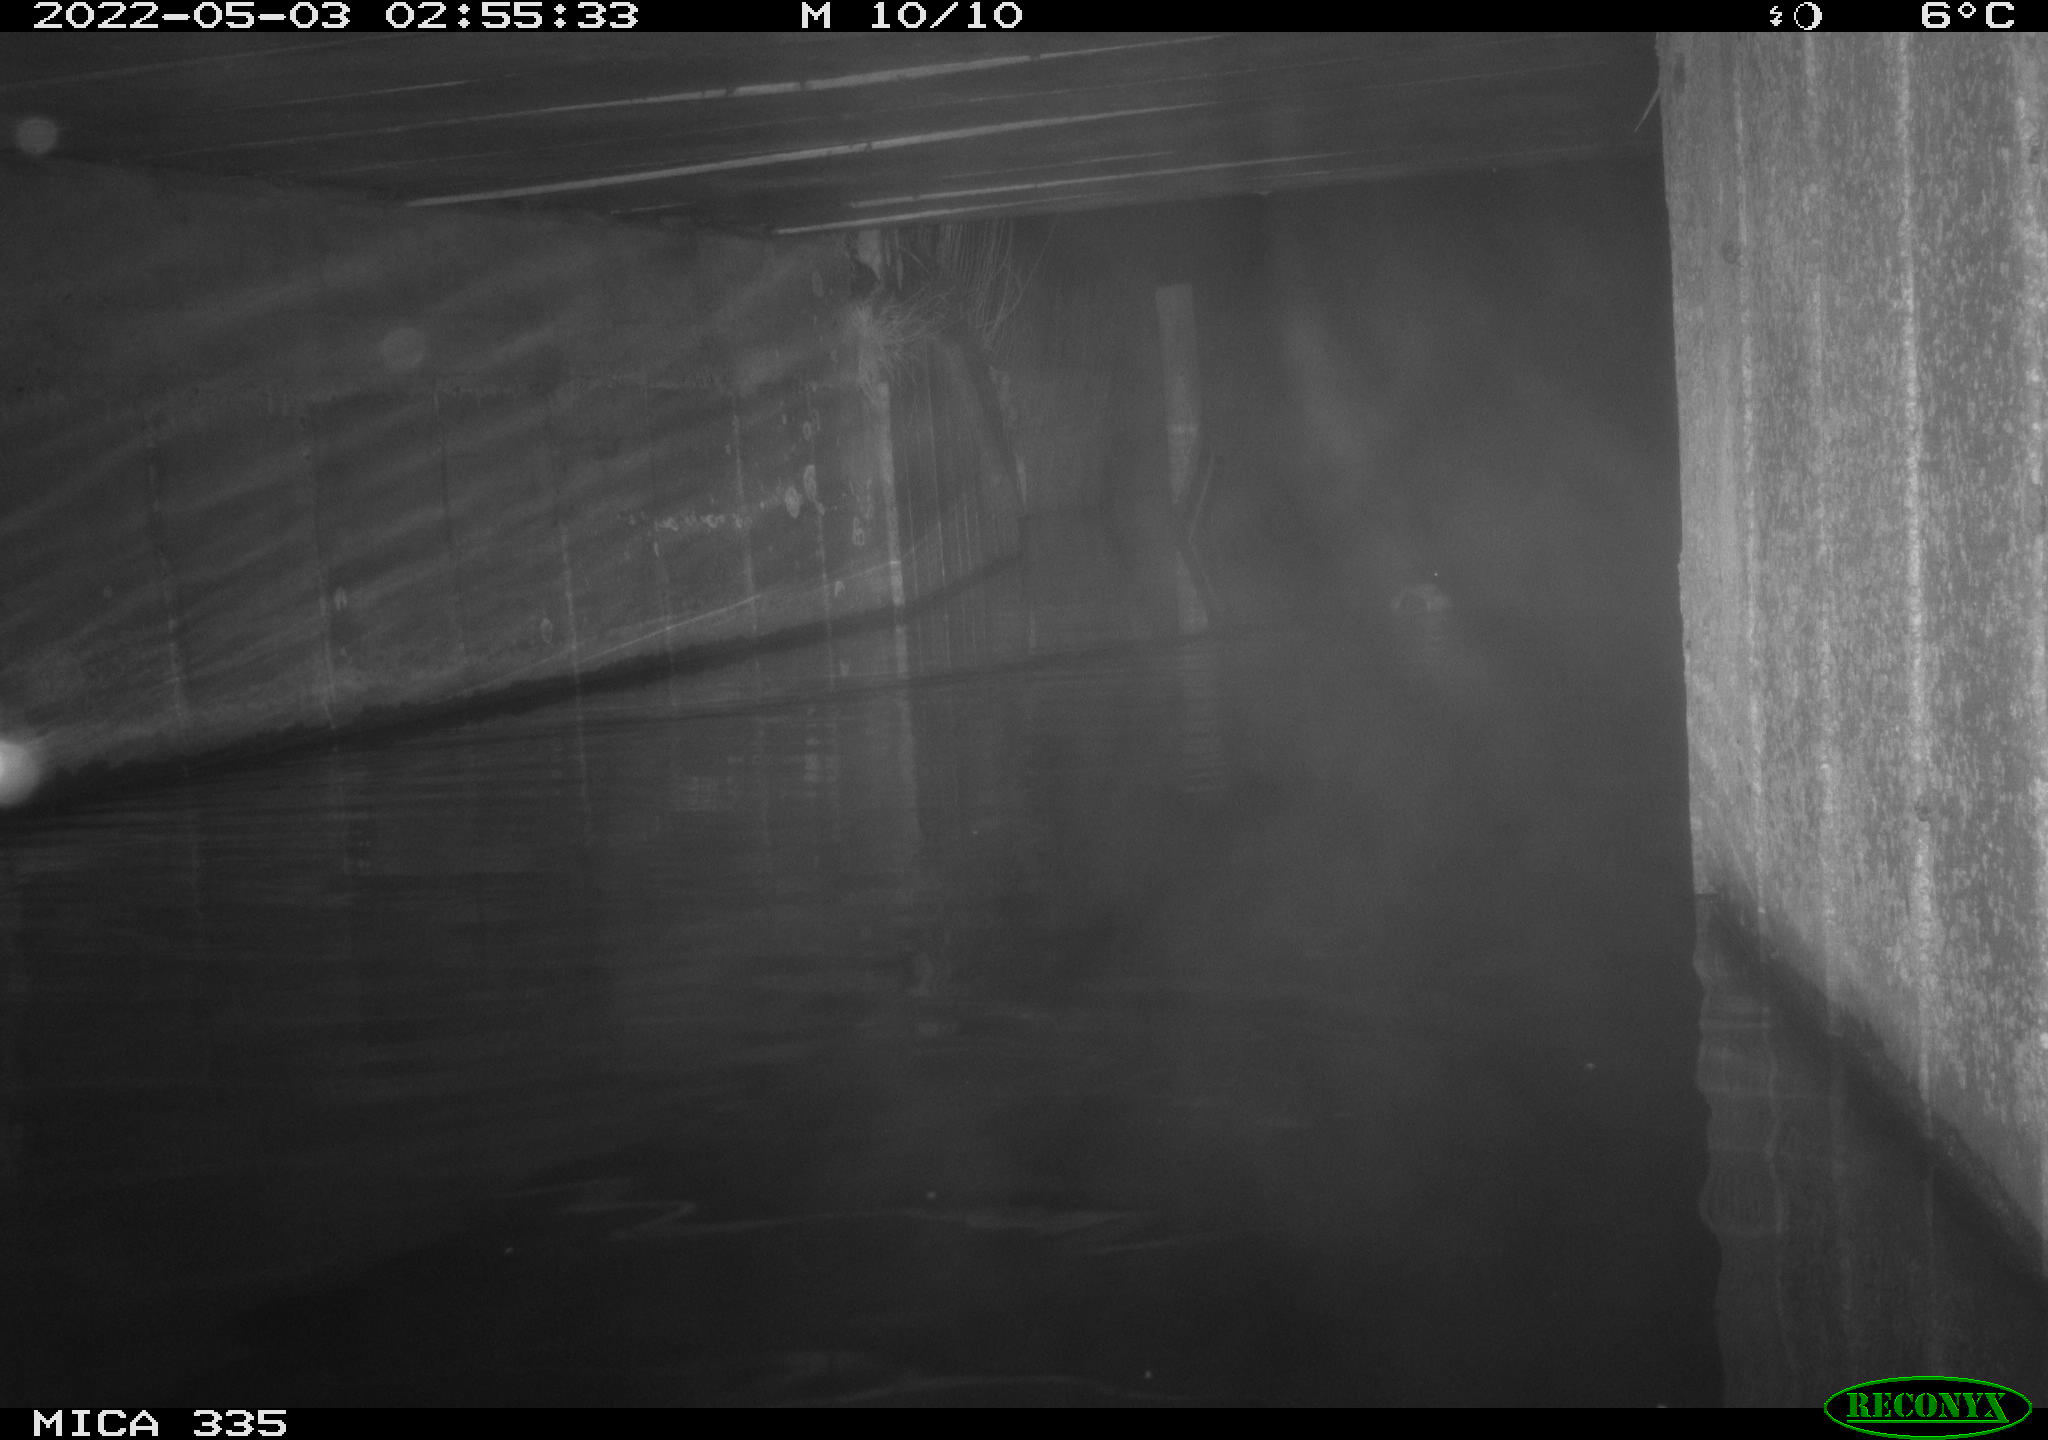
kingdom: Animalia
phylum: Chordata
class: Aves
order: Anseriformes
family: Anatidae
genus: Anas
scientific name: Anas platyrhynchos
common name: Mallard
